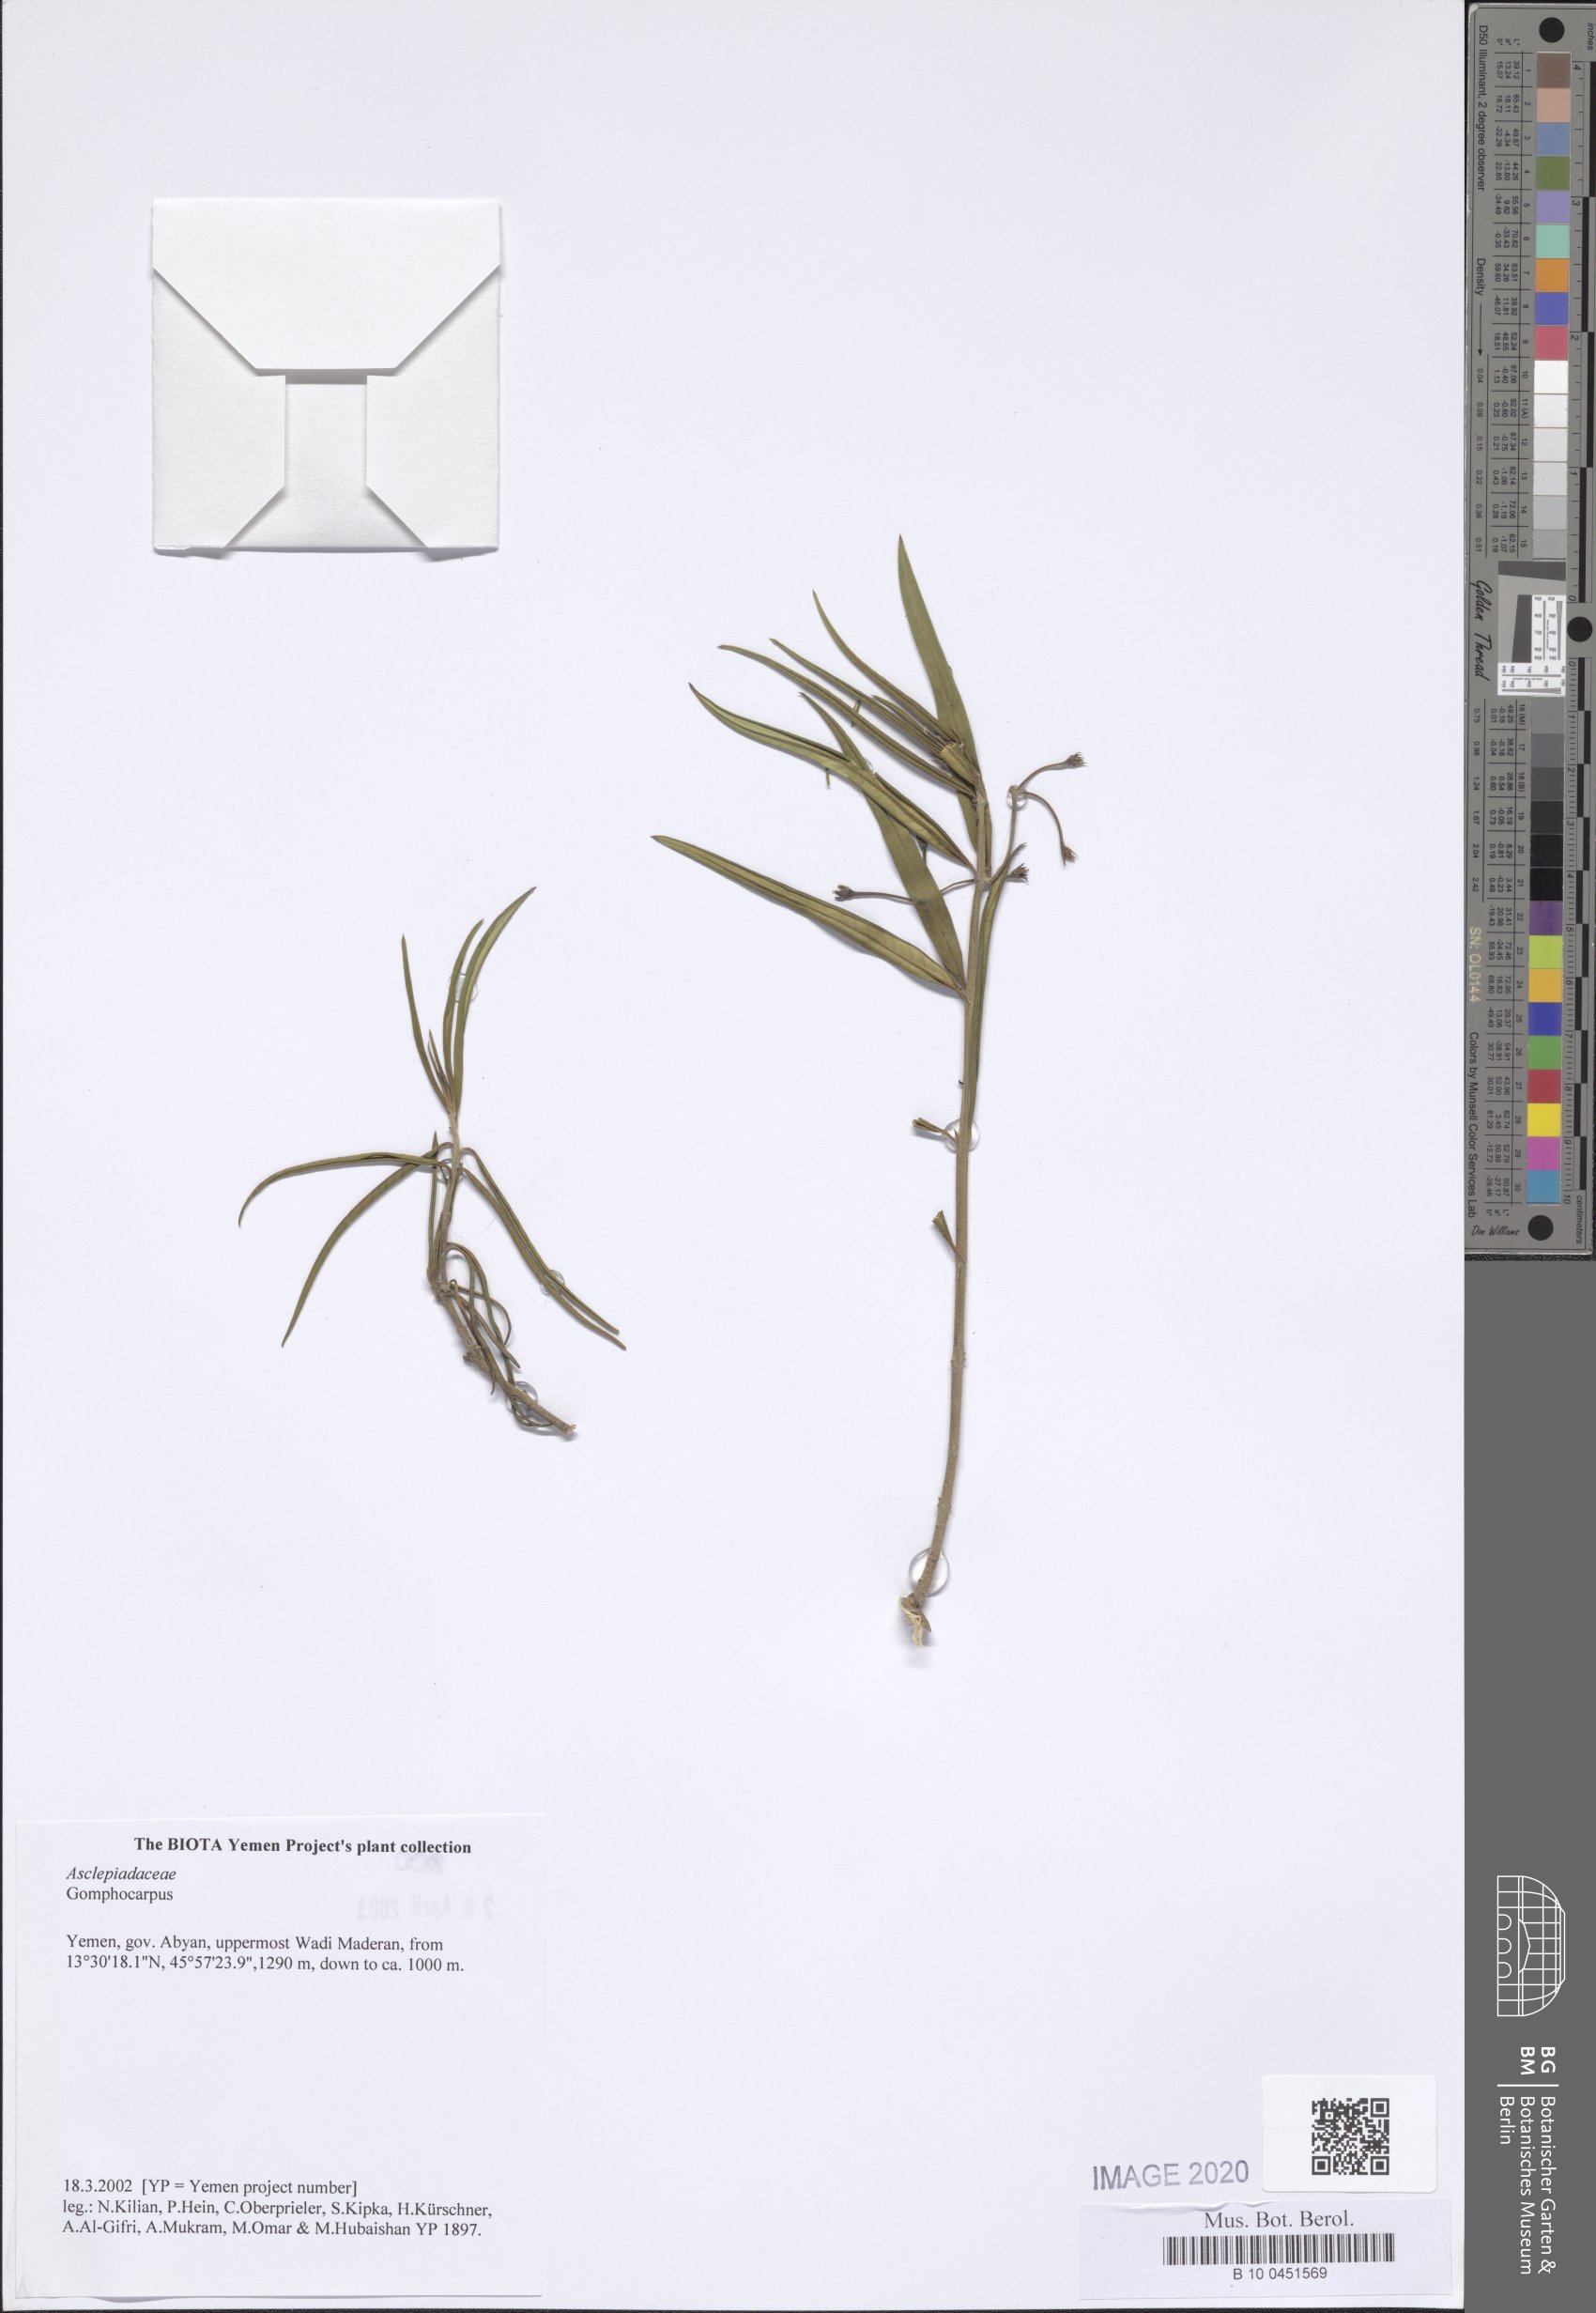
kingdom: Plantae
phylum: Tracheophyta
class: Magnoliopsida
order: Gentianales
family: Apocynaceae
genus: Gomphocarpus
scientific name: Gomphocarpus
